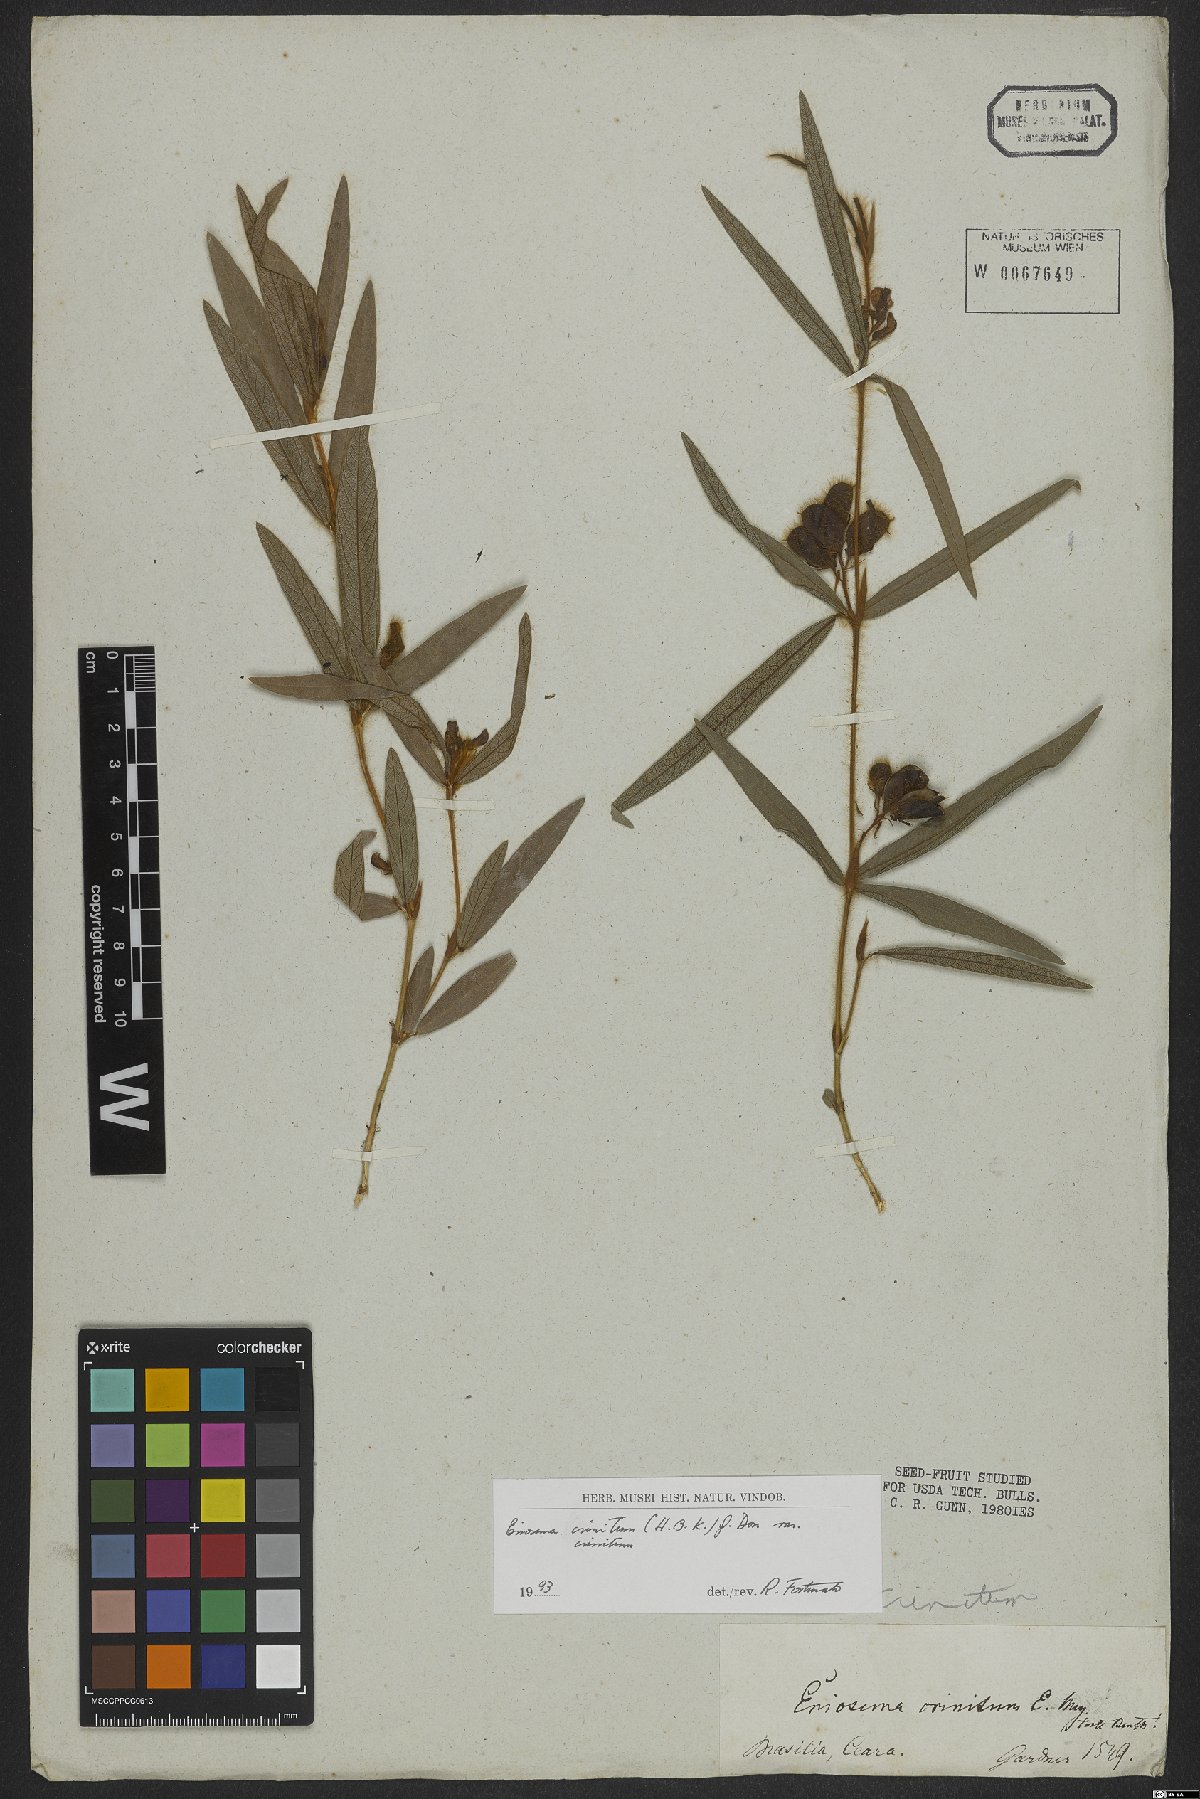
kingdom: Plantae
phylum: Tracheophyta
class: Magnoliopsida
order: Fabales
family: Fabaceae
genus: Eriosema
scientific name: Eriosema crinitum
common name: Sand pea
